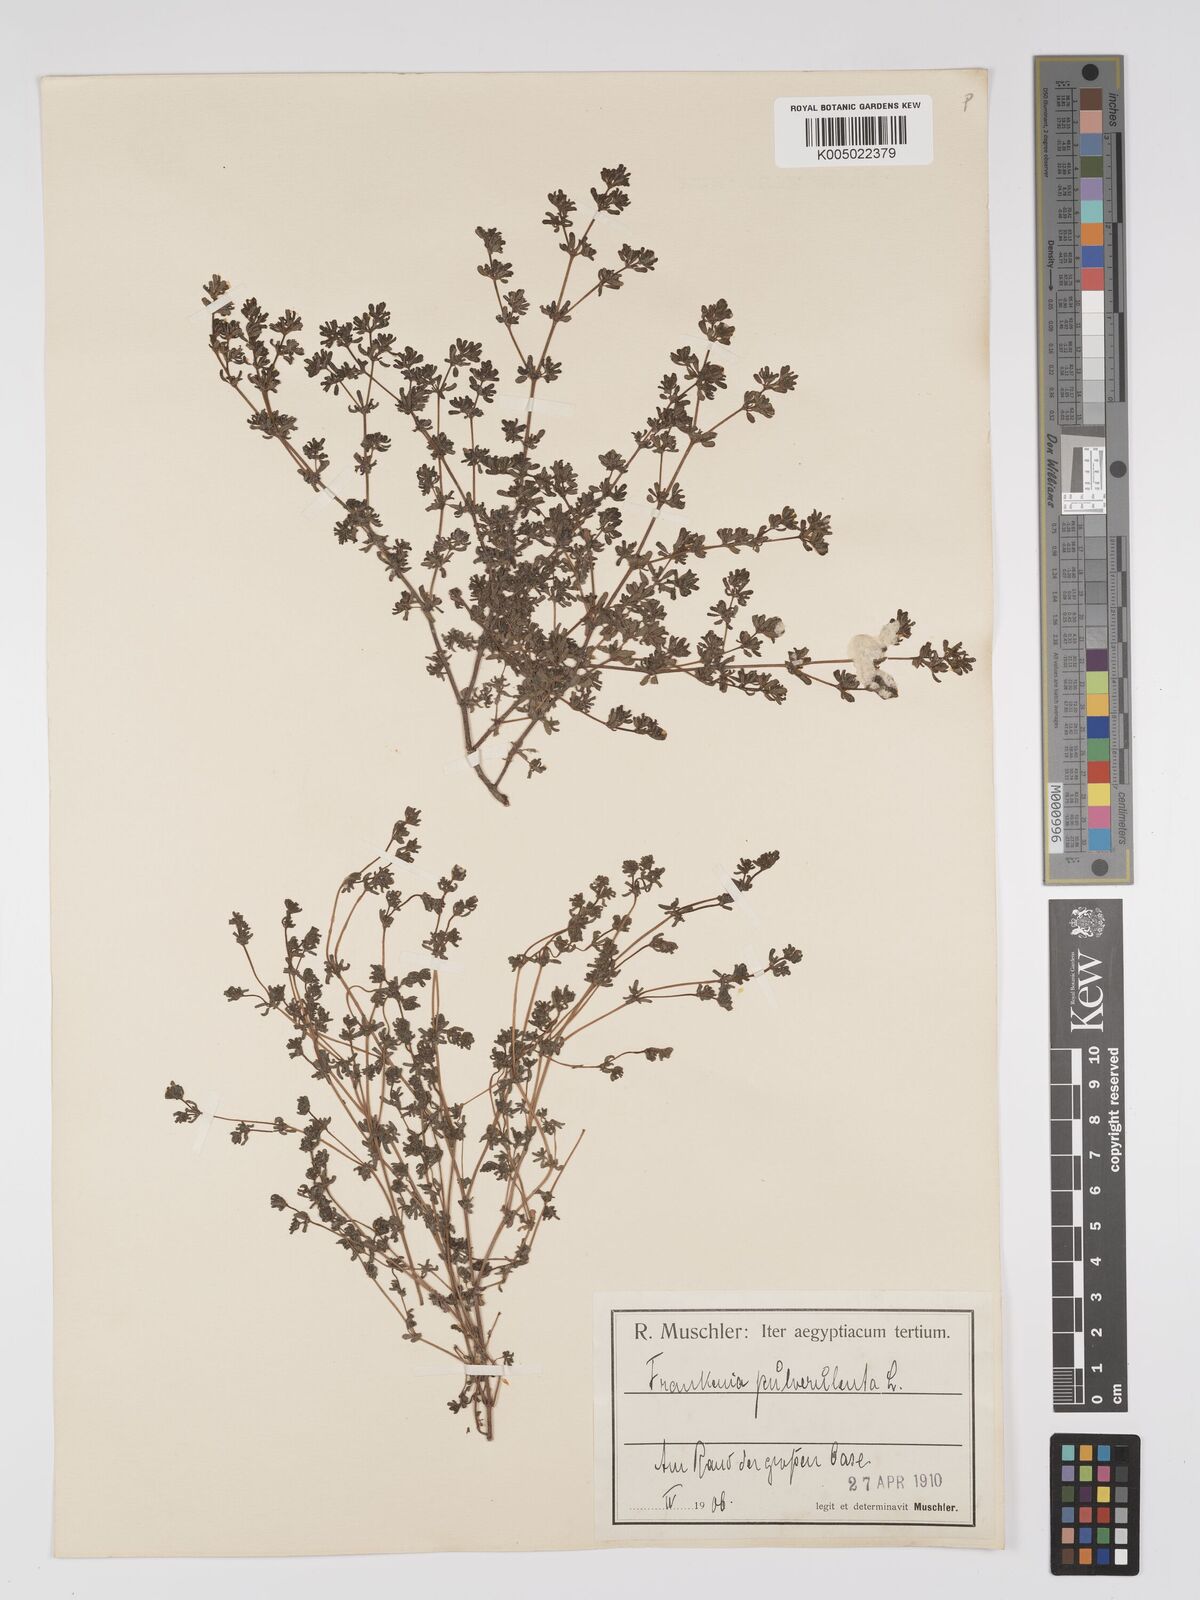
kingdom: Plantae
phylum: Tracheophyta
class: Magnoliopsida
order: Caryophyllales
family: Frankeniaceae
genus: Frankenia
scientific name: Frankenia pulverulenta
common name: European seaheath
